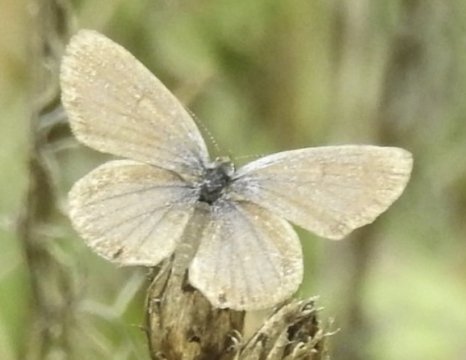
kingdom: Animalia
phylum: Arthropoda
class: Insecta
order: Lepidoptera
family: Lycaenidae
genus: Elkalyce
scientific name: Elkalyce comyntas
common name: Eastern Tailed-Blue
